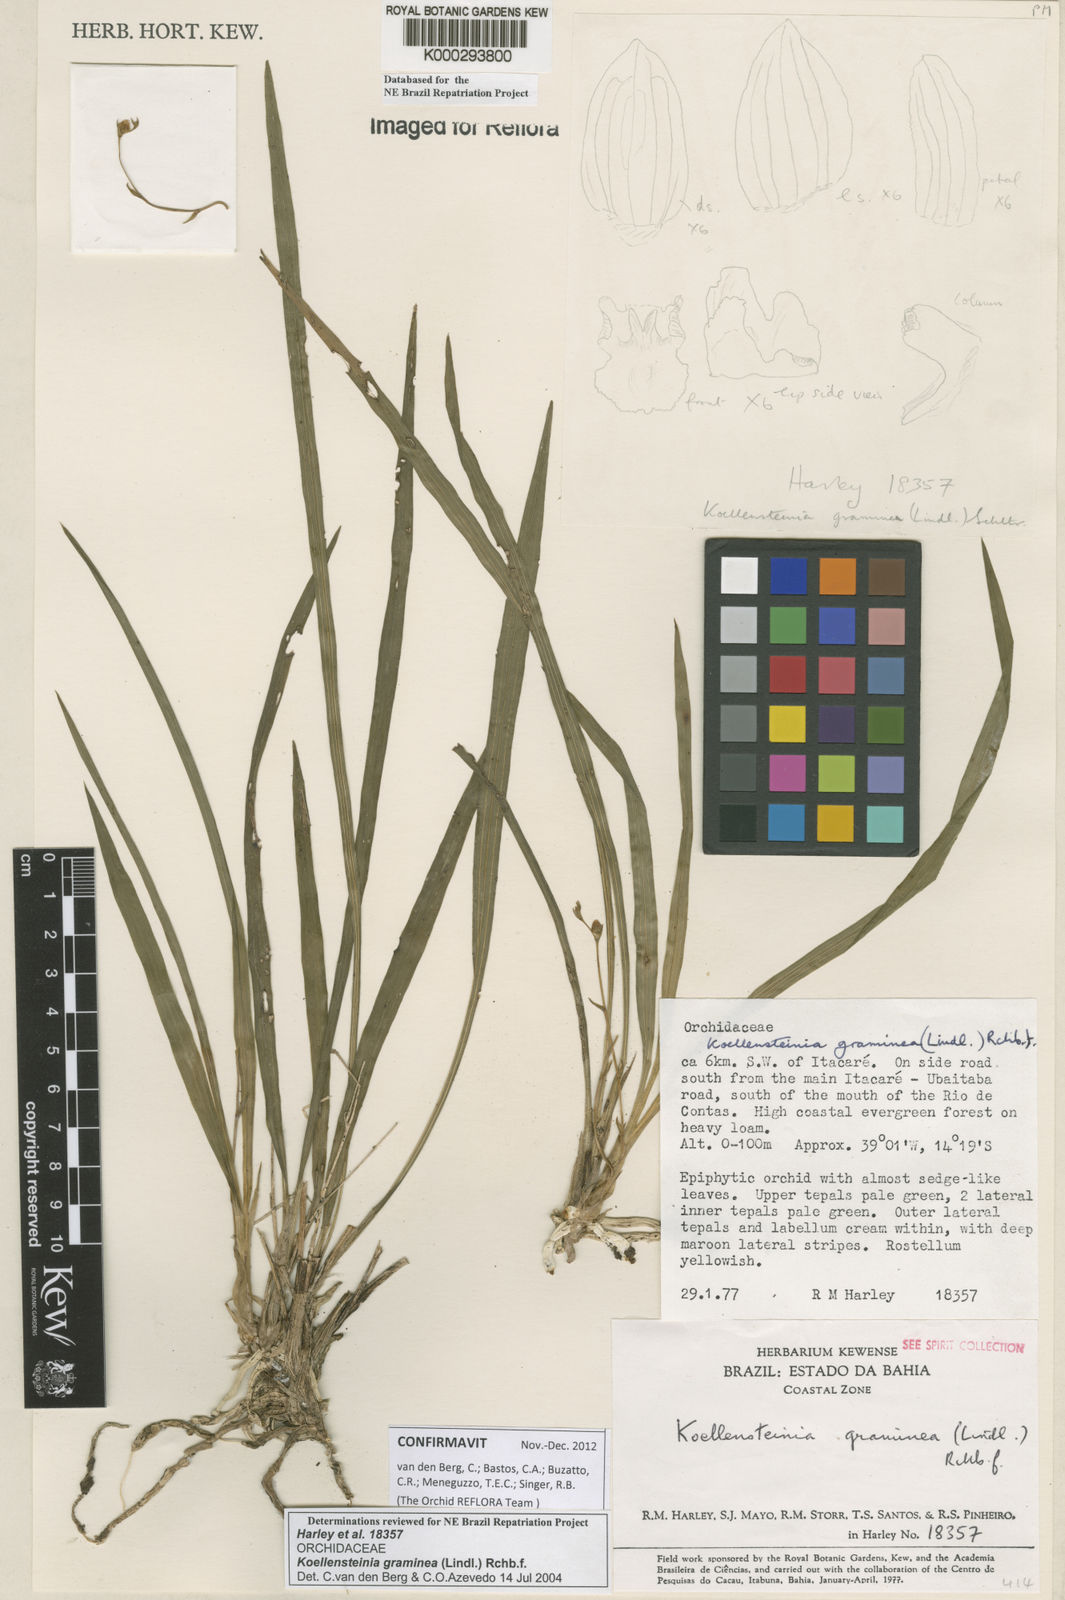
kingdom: Plantae
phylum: Tracheophyta
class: Liliopsida
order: Asparagales
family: Orchidaceae
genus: Koellensteinia
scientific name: Koellensteinia graminea
